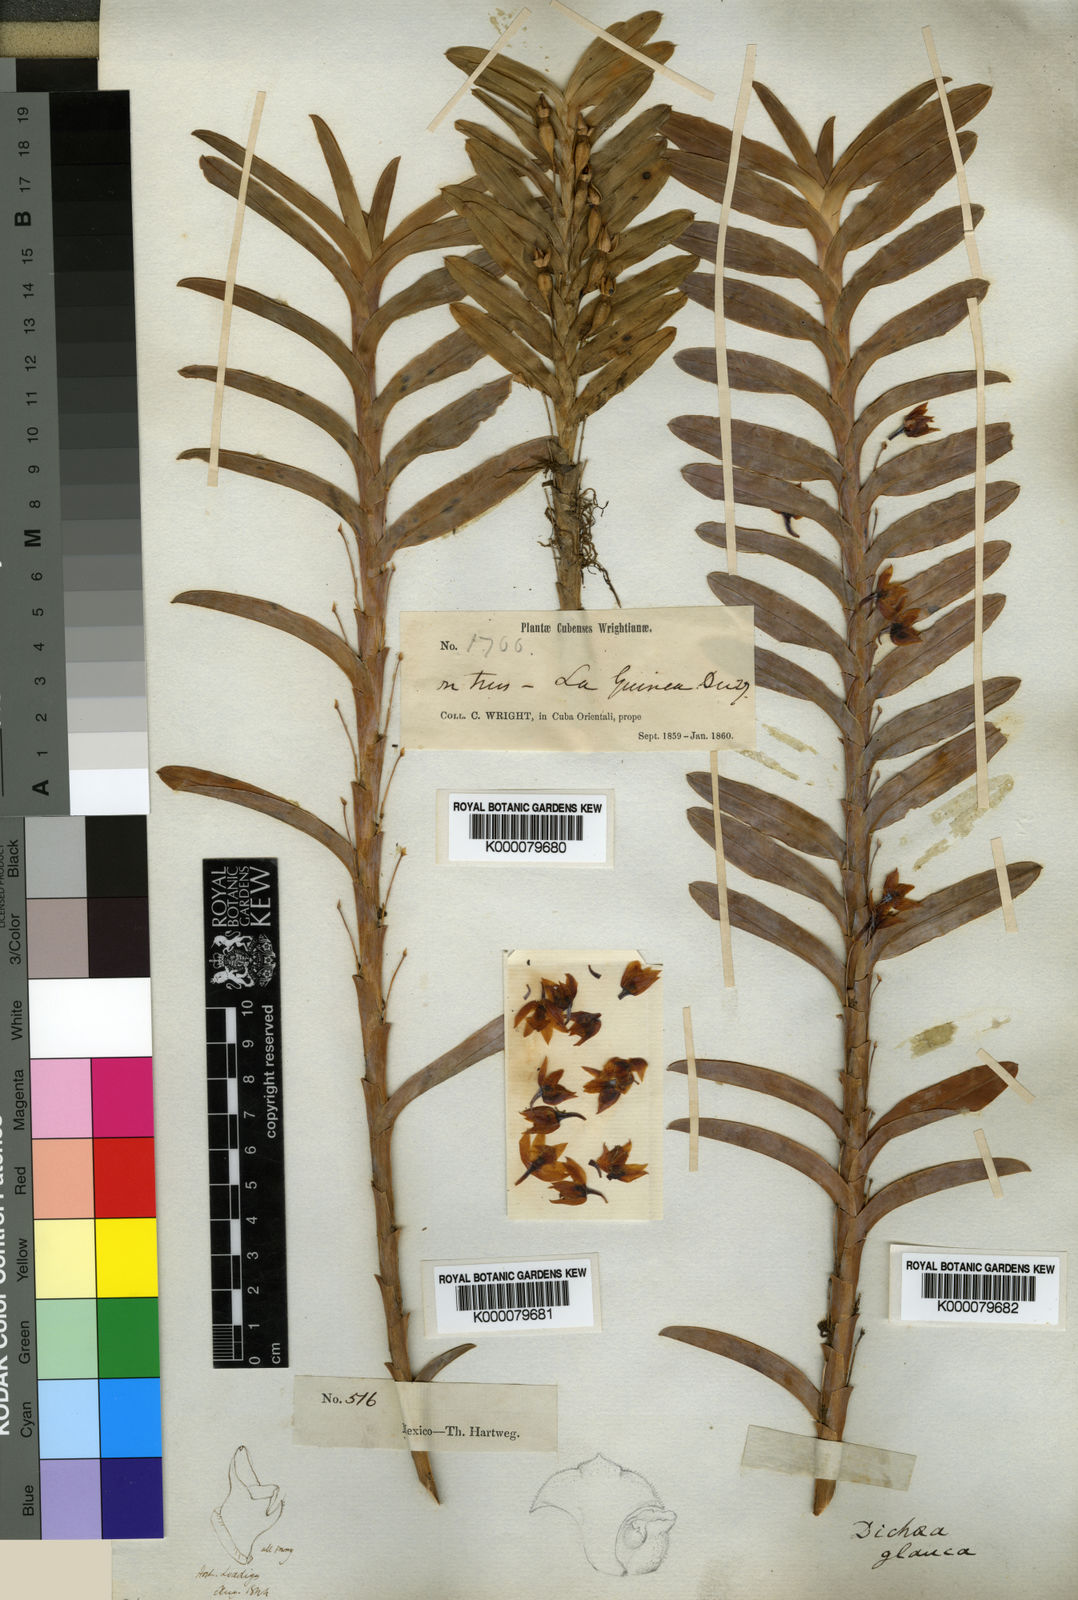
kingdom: Plantae
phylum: Tracheophyta
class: Liliopsida
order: Asparagales
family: Orchidaceae
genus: Dichaea
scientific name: Dichaea glauca
